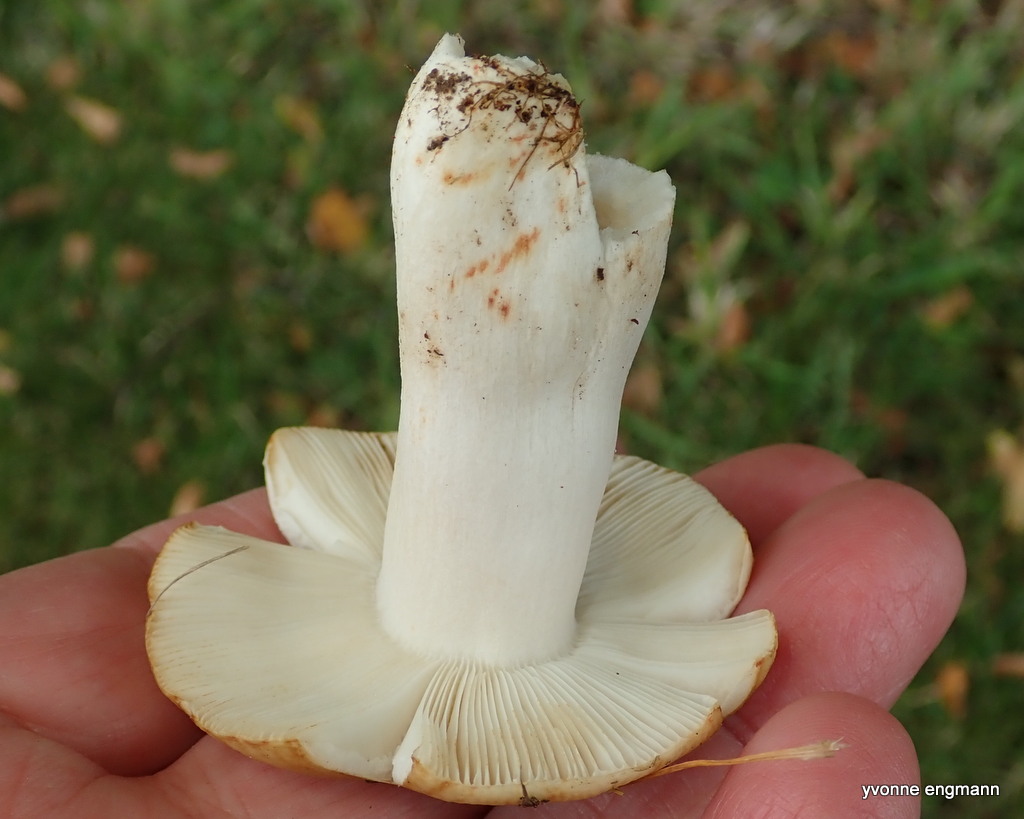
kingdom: Fungi
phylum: Basidiomycota
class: Agaricomycetes
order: Russulales
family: Russulaceae
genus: Russula
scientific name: Russula recondita
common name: mild kam-skørhat
